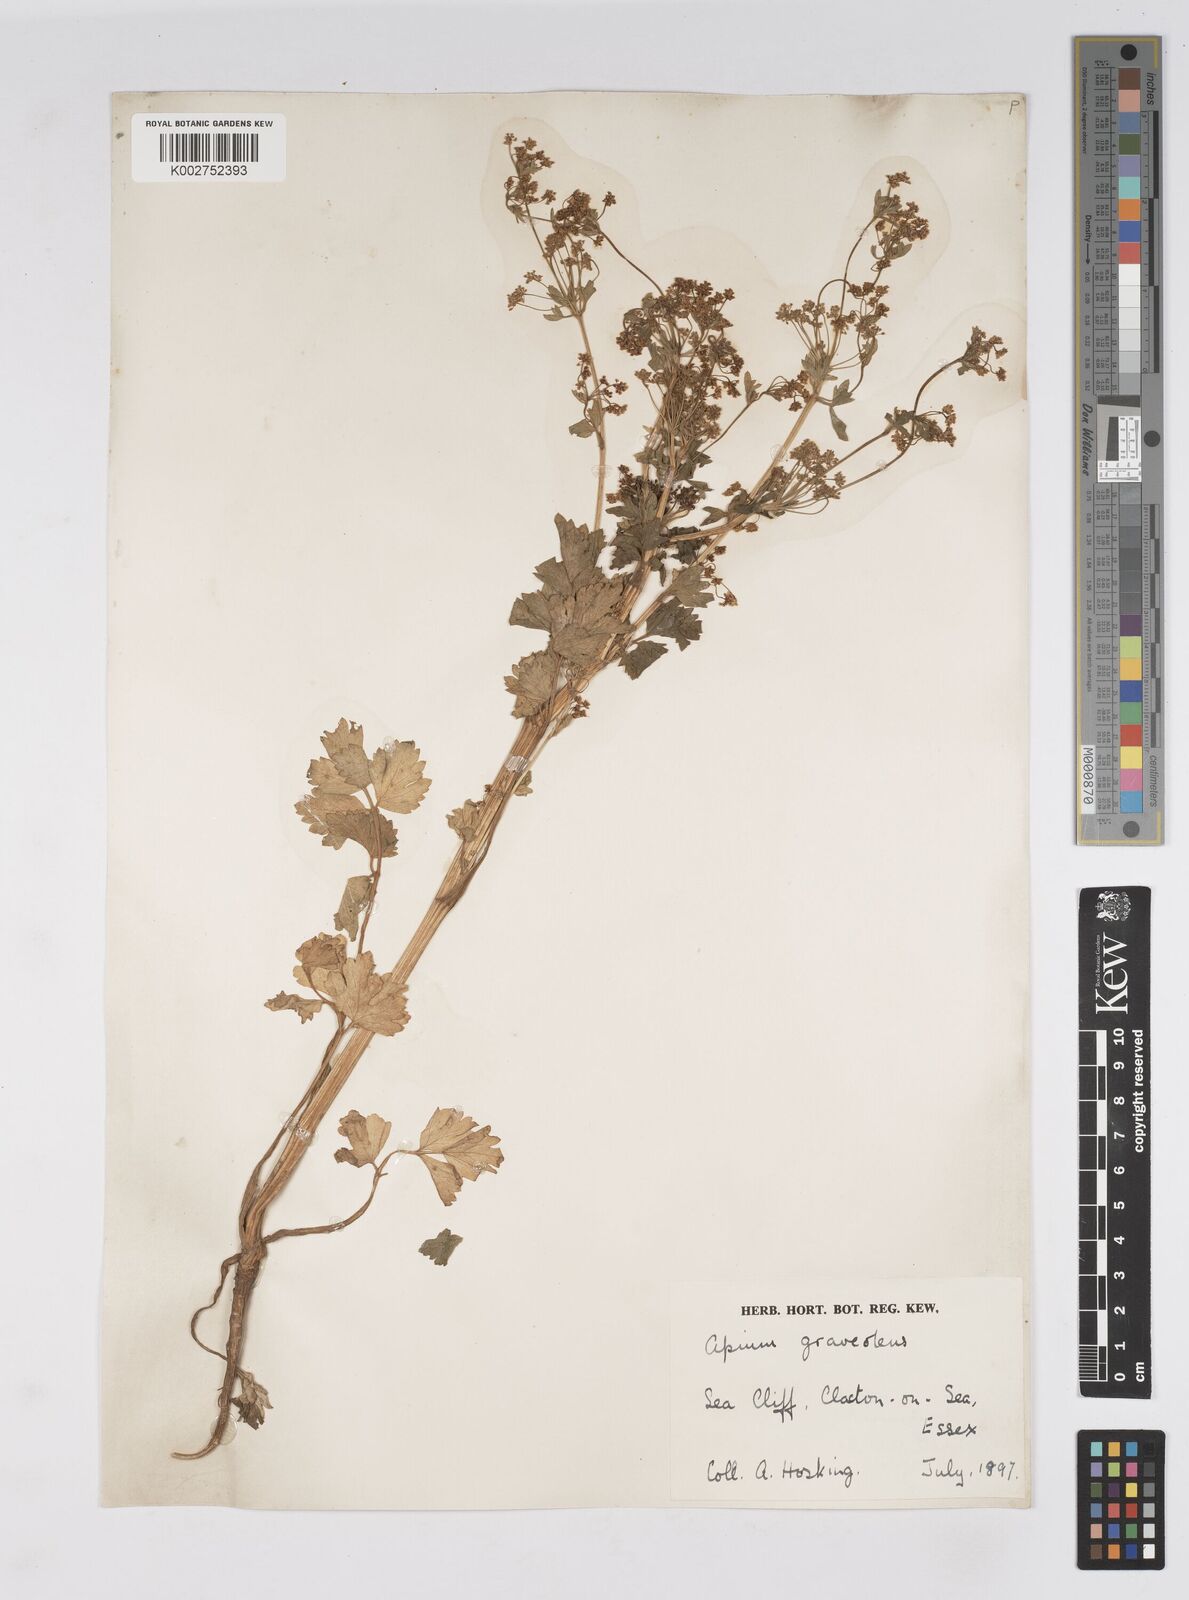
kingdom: Plantae
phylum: Tracheophyta
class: Magnoliopsida
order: Apiales
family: Apiaceae
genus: Apium
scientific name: Apium graveolens
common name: Wild celery
